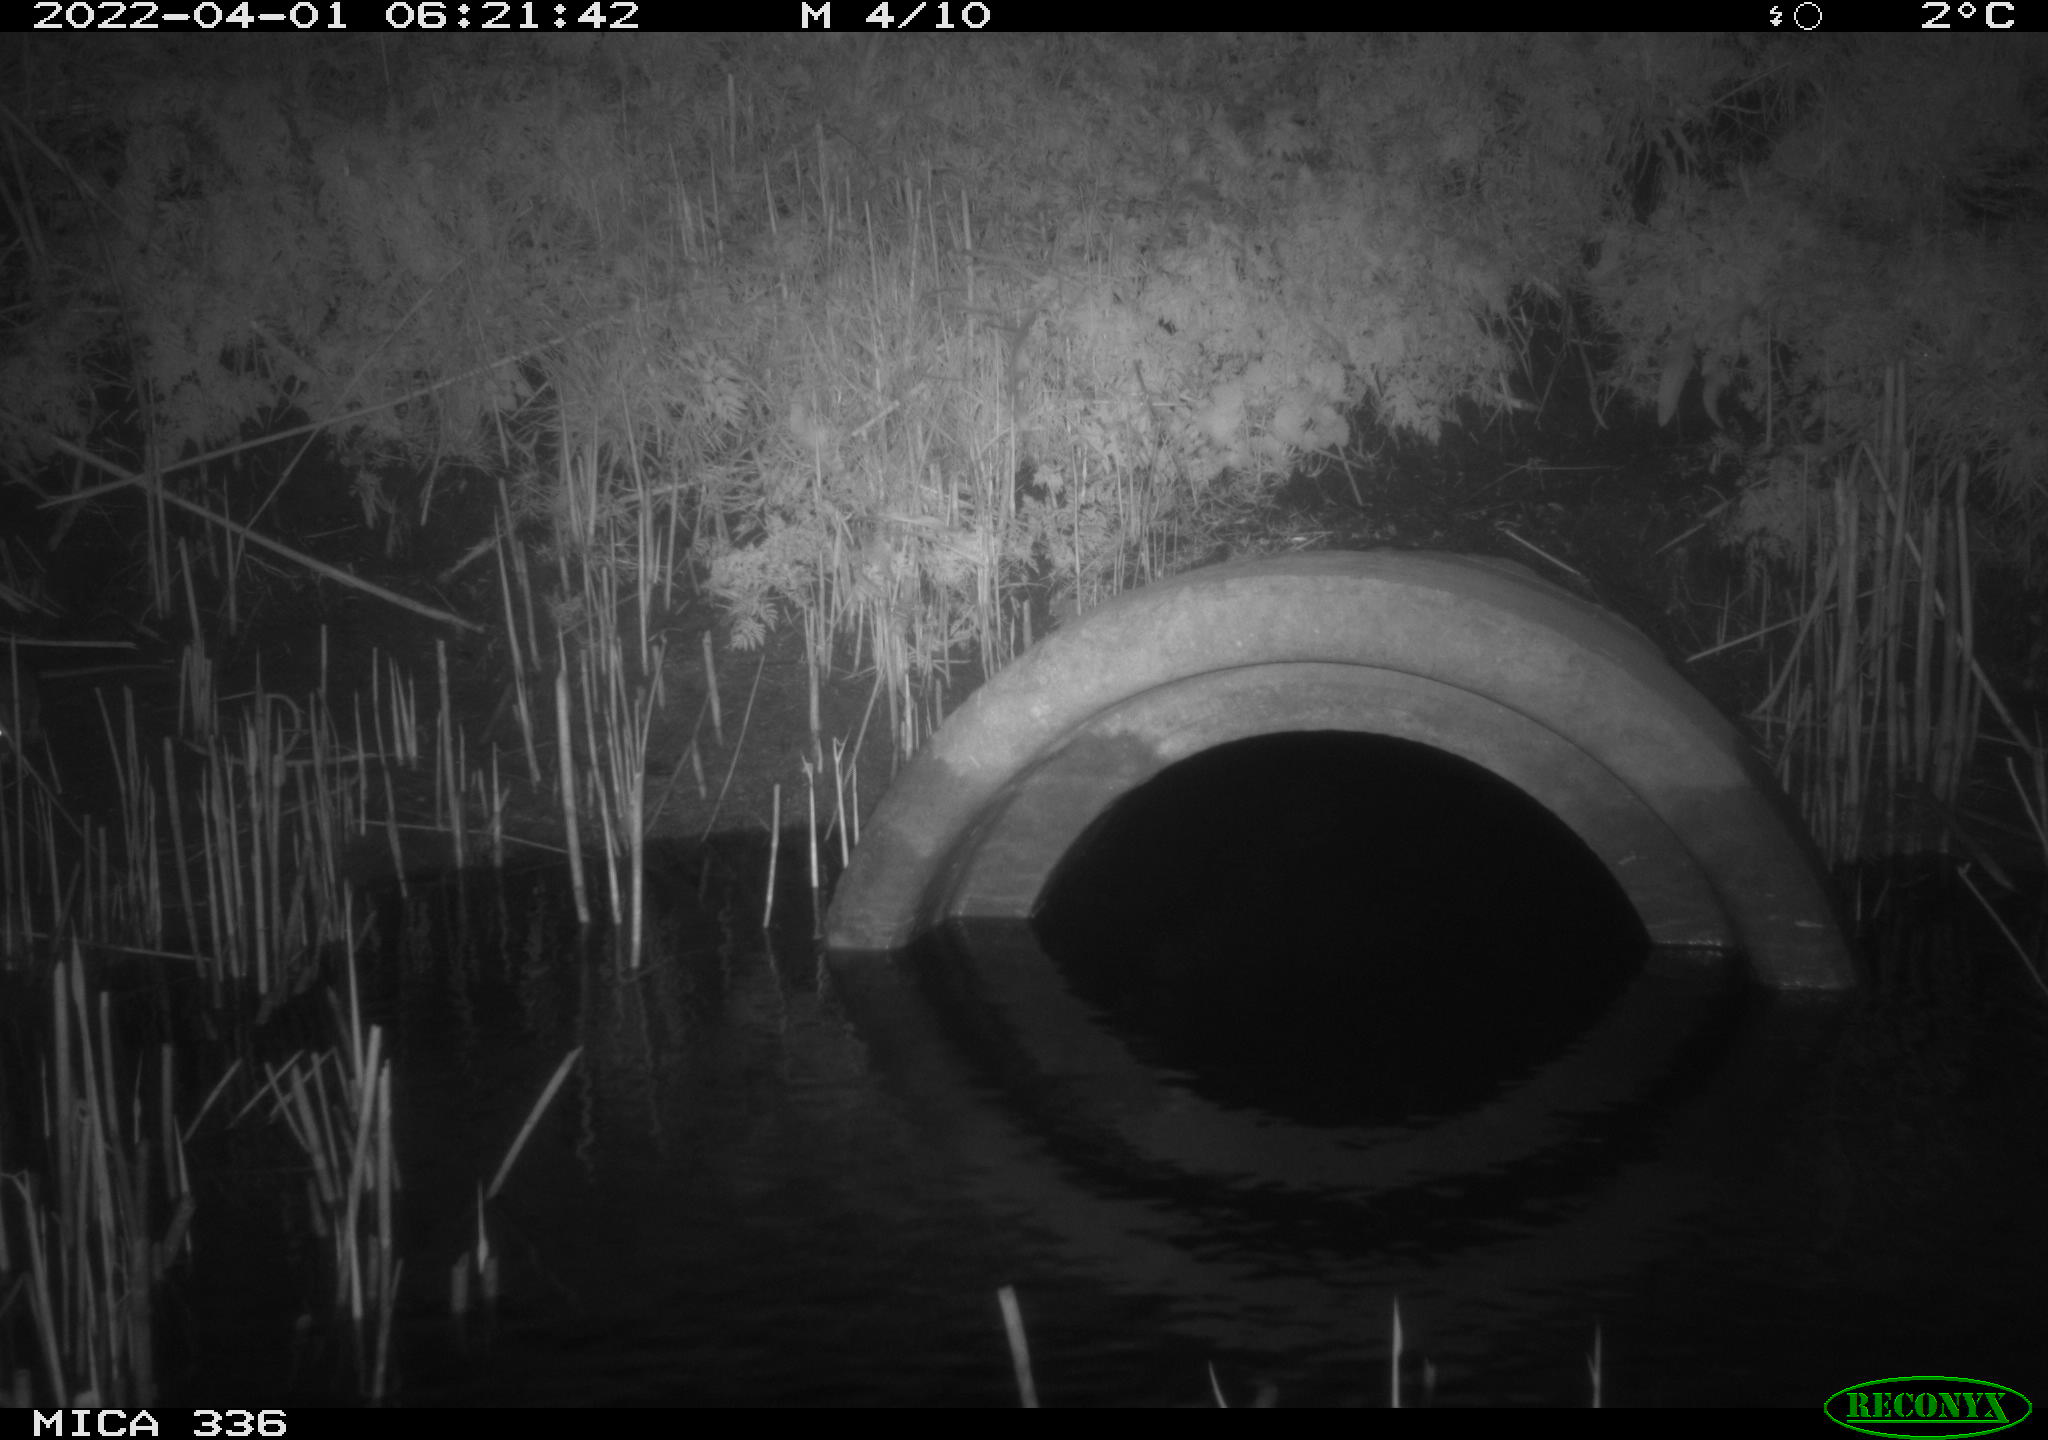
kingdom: Animalia
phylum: Chordata
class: Mammalia
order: Rodentia
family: Muridae
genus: Rattus
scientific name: Rattus norvegicus
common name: Brown rat
